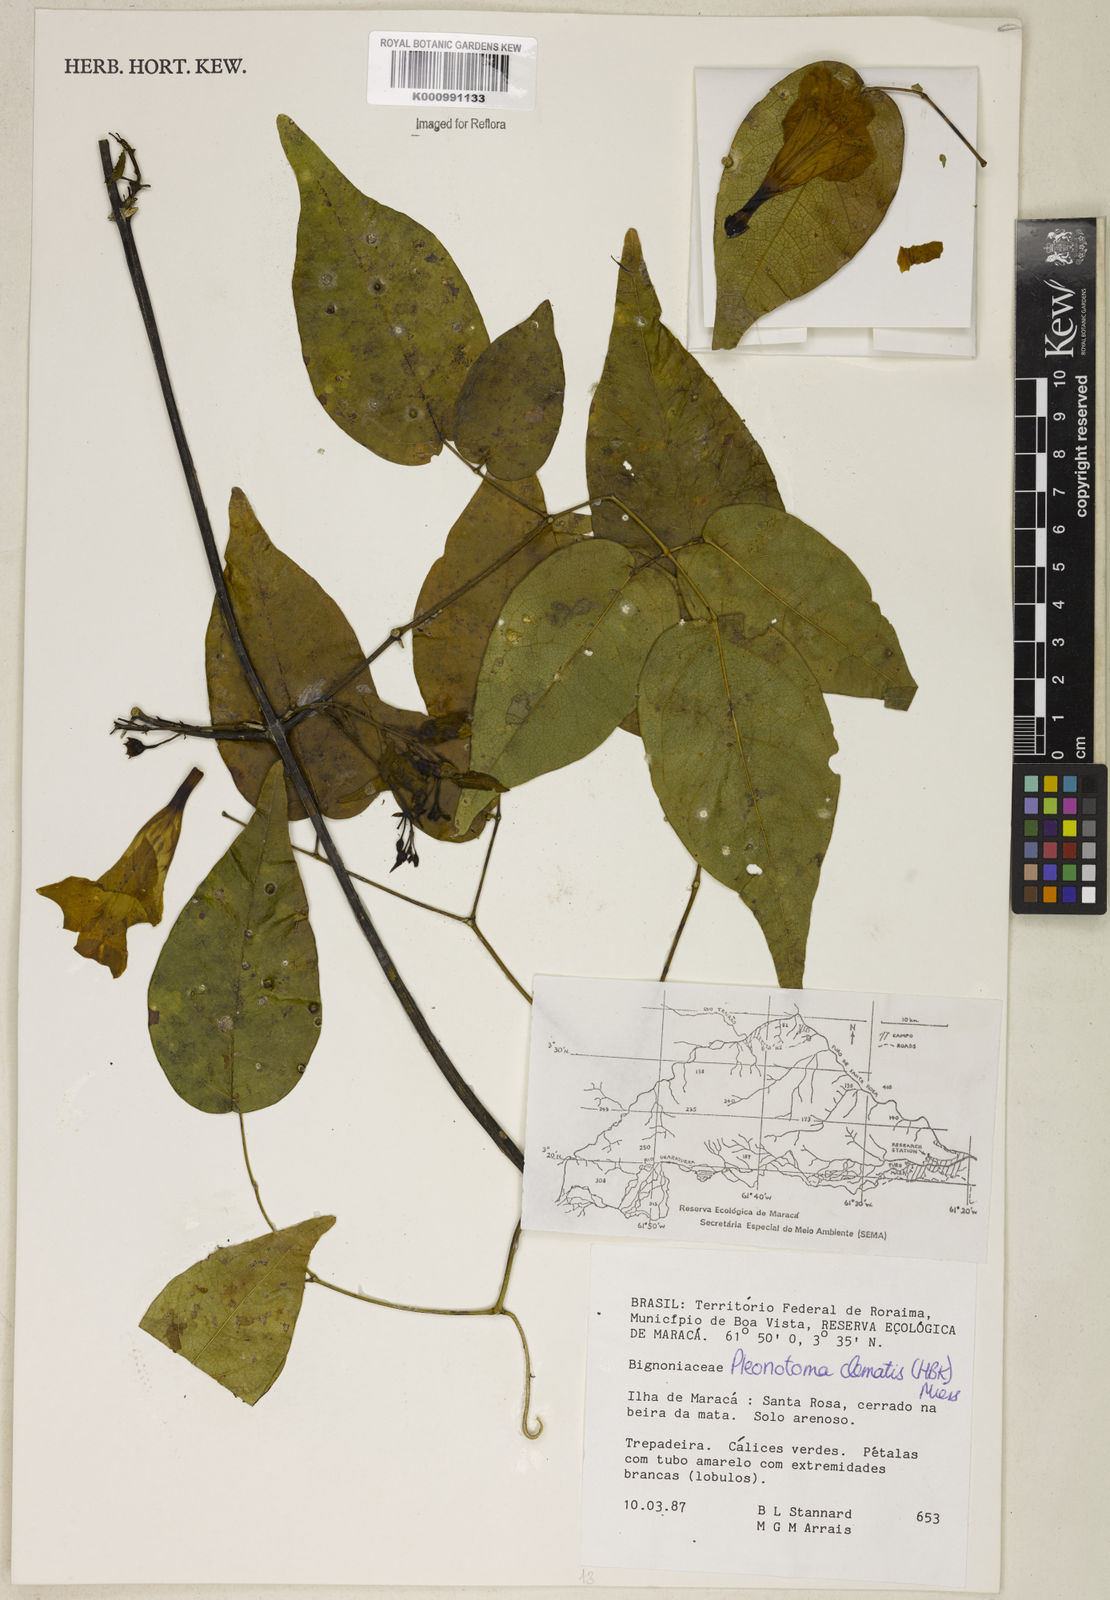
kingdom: Plantae
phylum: Tracheophyta
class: Magnoliopsida
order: Lamiales
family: Bignoniaceae
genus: Pleonotoma
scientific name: Pleonotoma clematis
